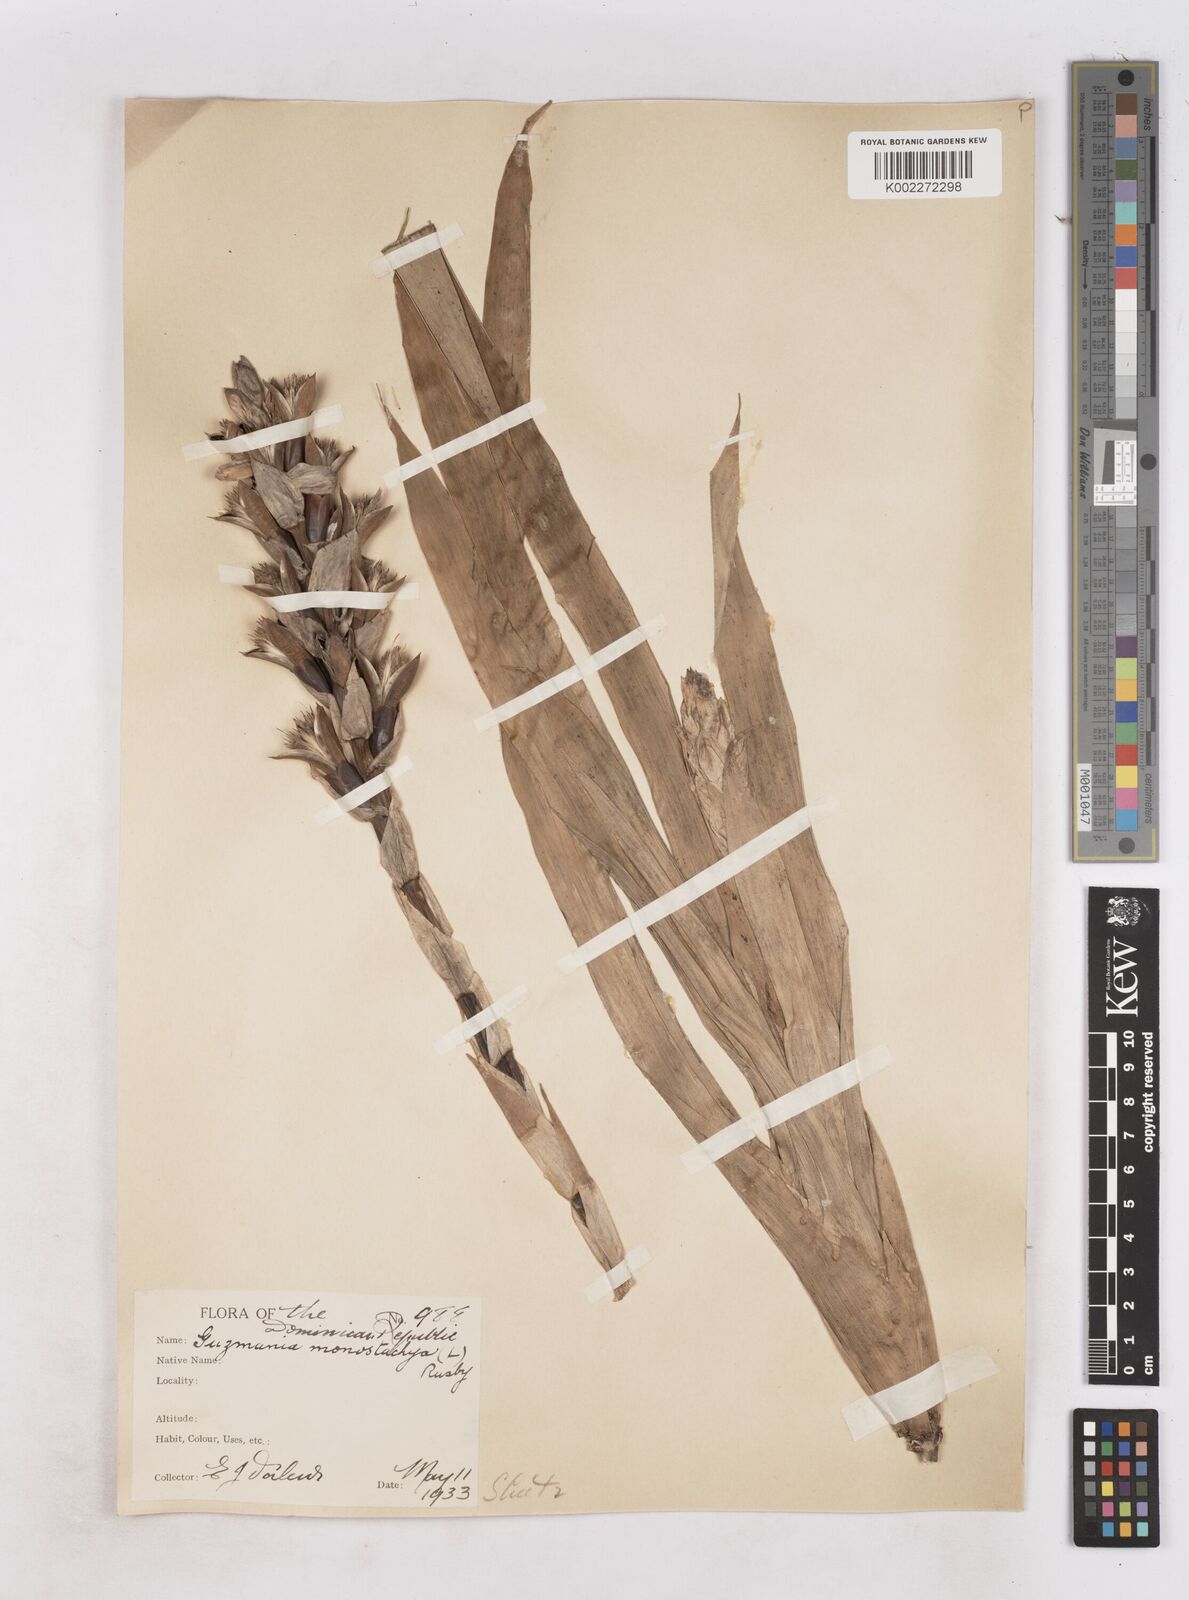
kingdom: Plantae
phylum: Tracheophyta
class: Liliopsida
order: Poales
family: Bromeliaceae
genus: Guzmania
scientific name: Guzmania monostachia
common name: West indian tufted airplant
